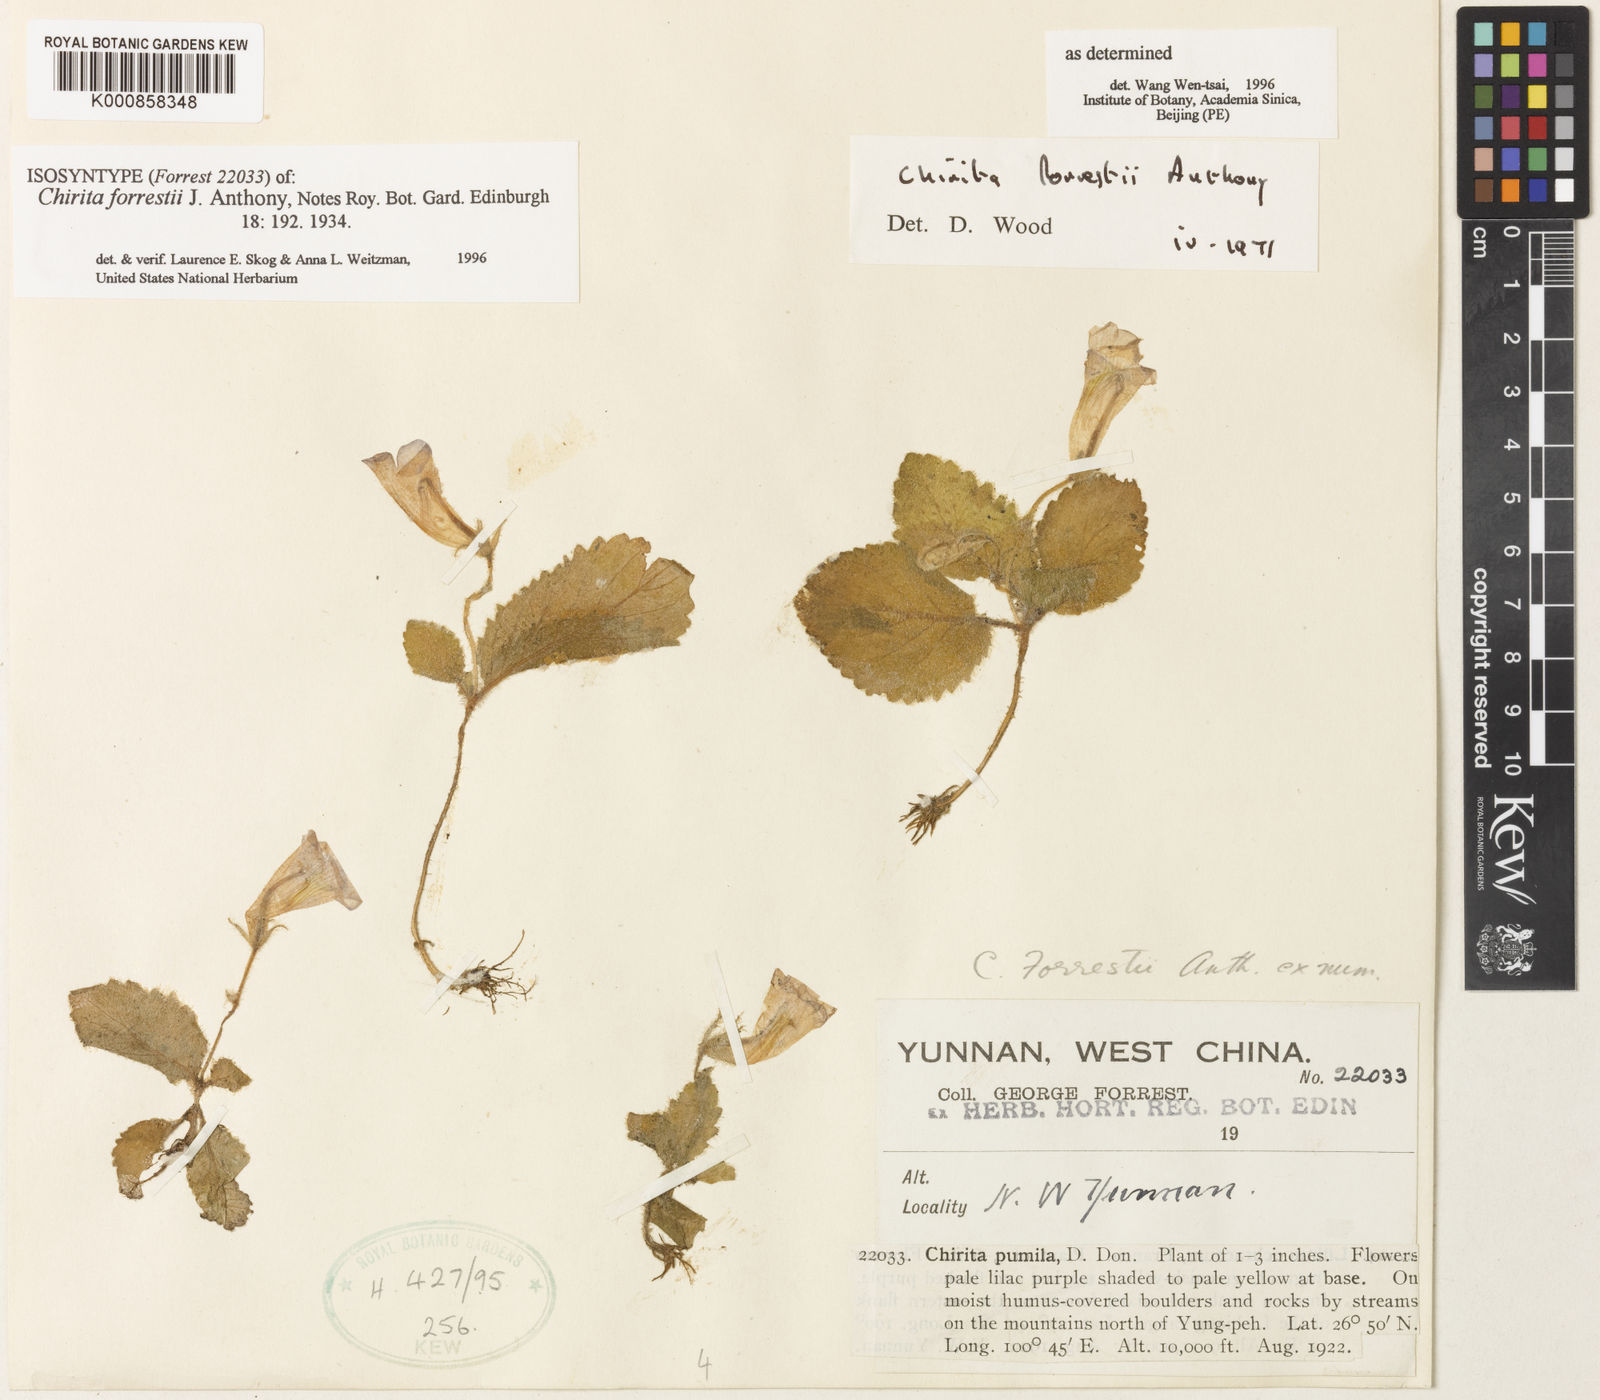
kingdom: Plantae
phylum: Tracheophyta
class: Magnoliopsida
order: Lamiales
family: Gesneriaceae
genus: Henckelia
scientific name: Henckelia forrestii
